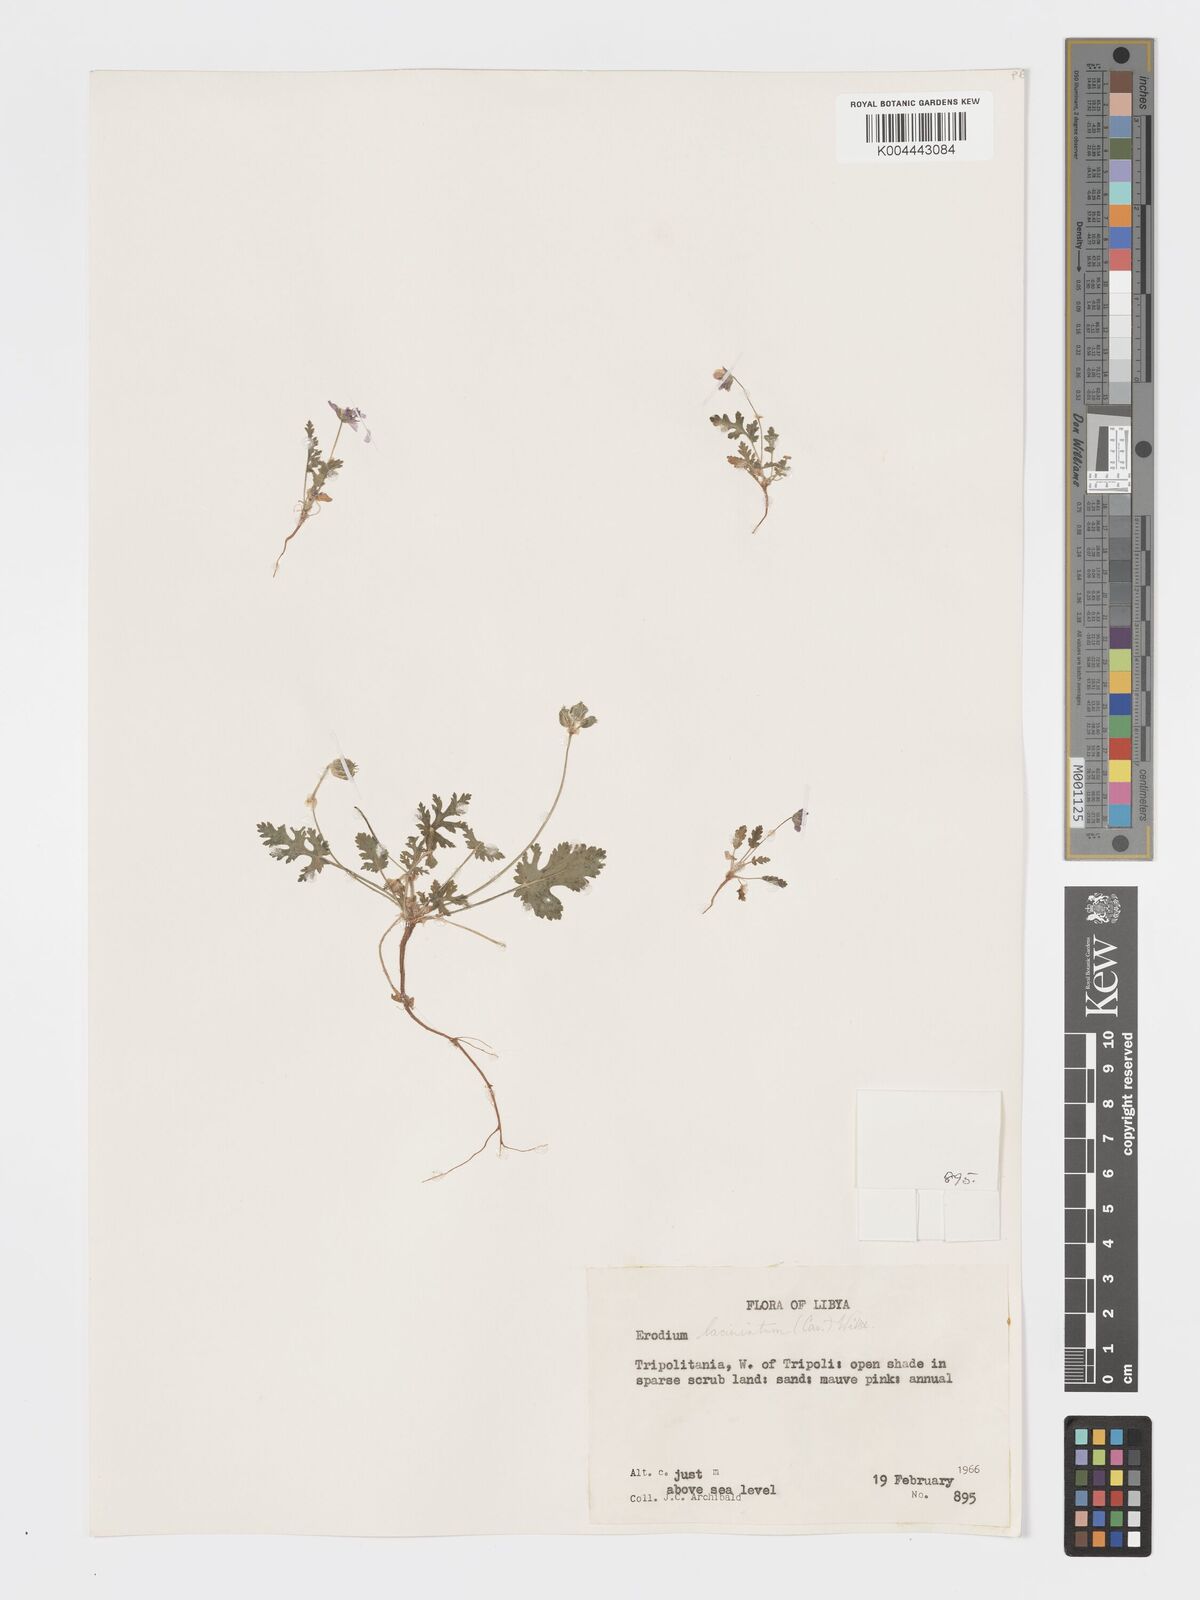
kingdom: Plantae
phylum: Tracheophyta
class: Magnoliopsida
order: Geraniales
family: Geraniaceae
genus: Erodium
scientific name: Erodium laciniatum
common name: Cutleaf stork's bill
